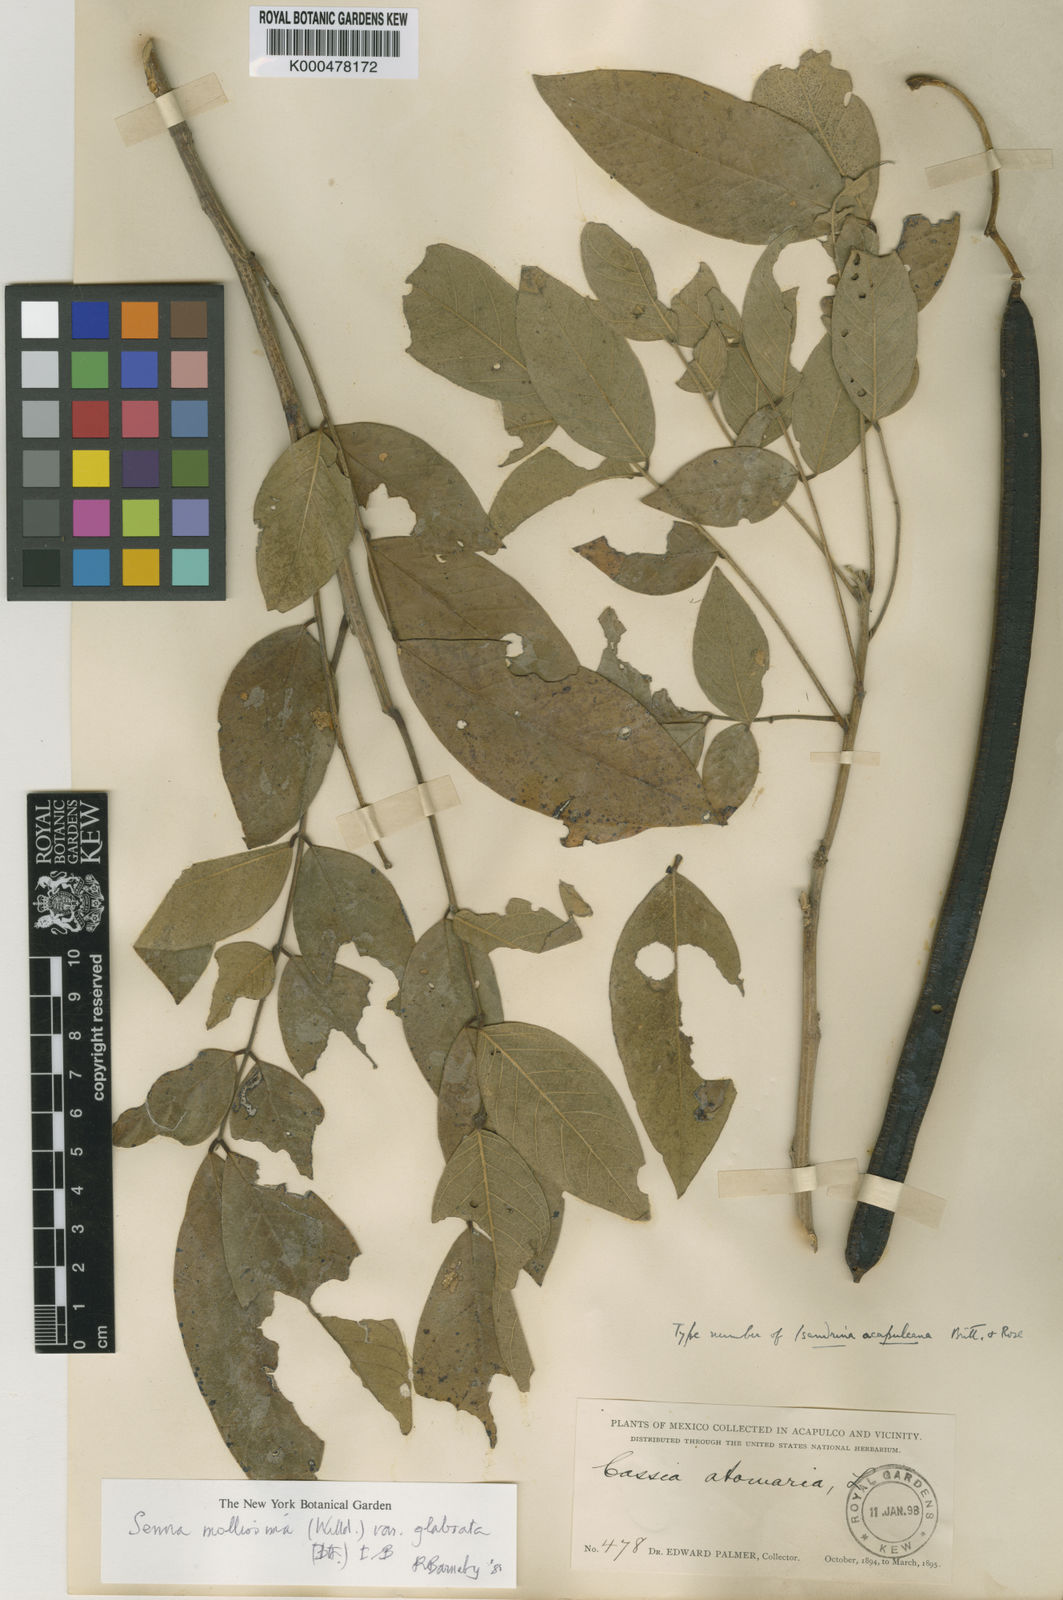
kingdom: Plantae
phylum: Tracheophyta
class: Magnoliopsida
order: Fabales
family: Fabaceae
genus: Senna
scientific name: Senna mollissima
